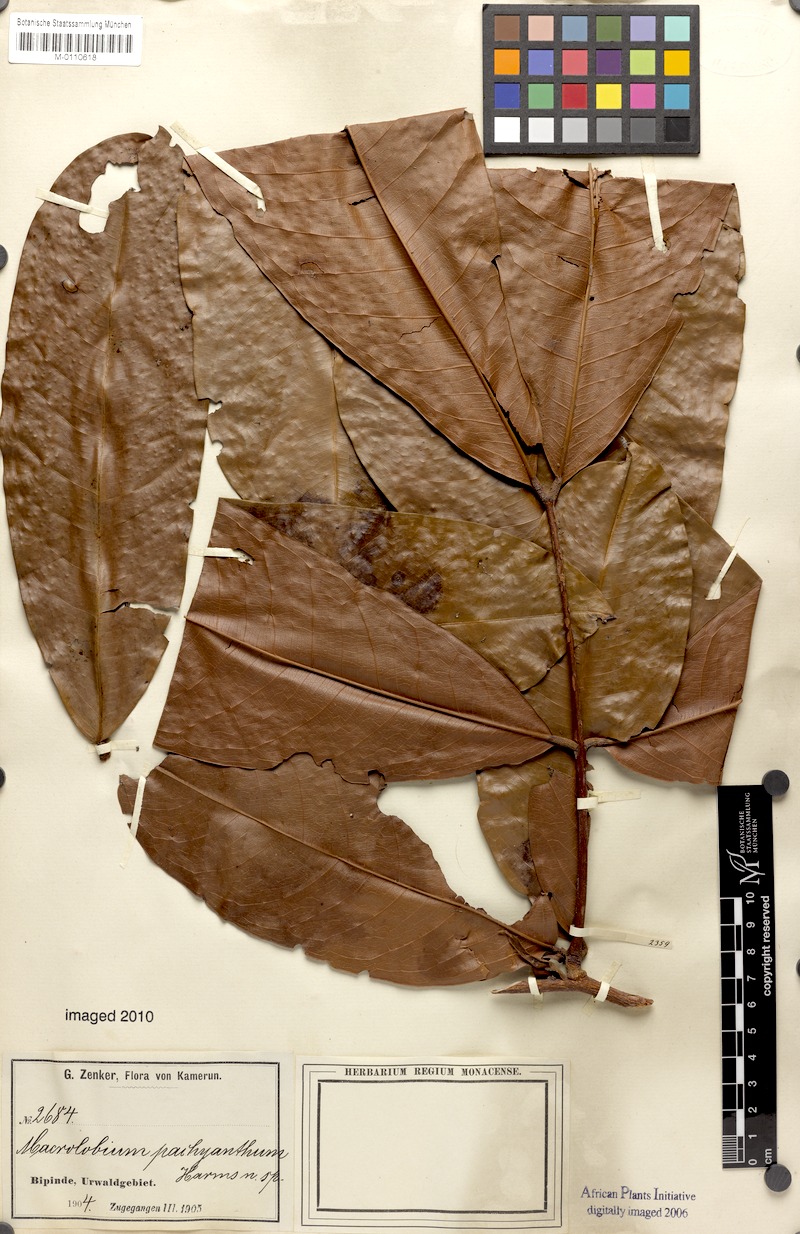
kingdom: Plantae
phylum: Tracheophyta
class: Magnoliopsida
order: Fabales
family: Fabaceae
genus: Gilbertiodendron
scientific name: Gilbertiodendron pachyanthum
